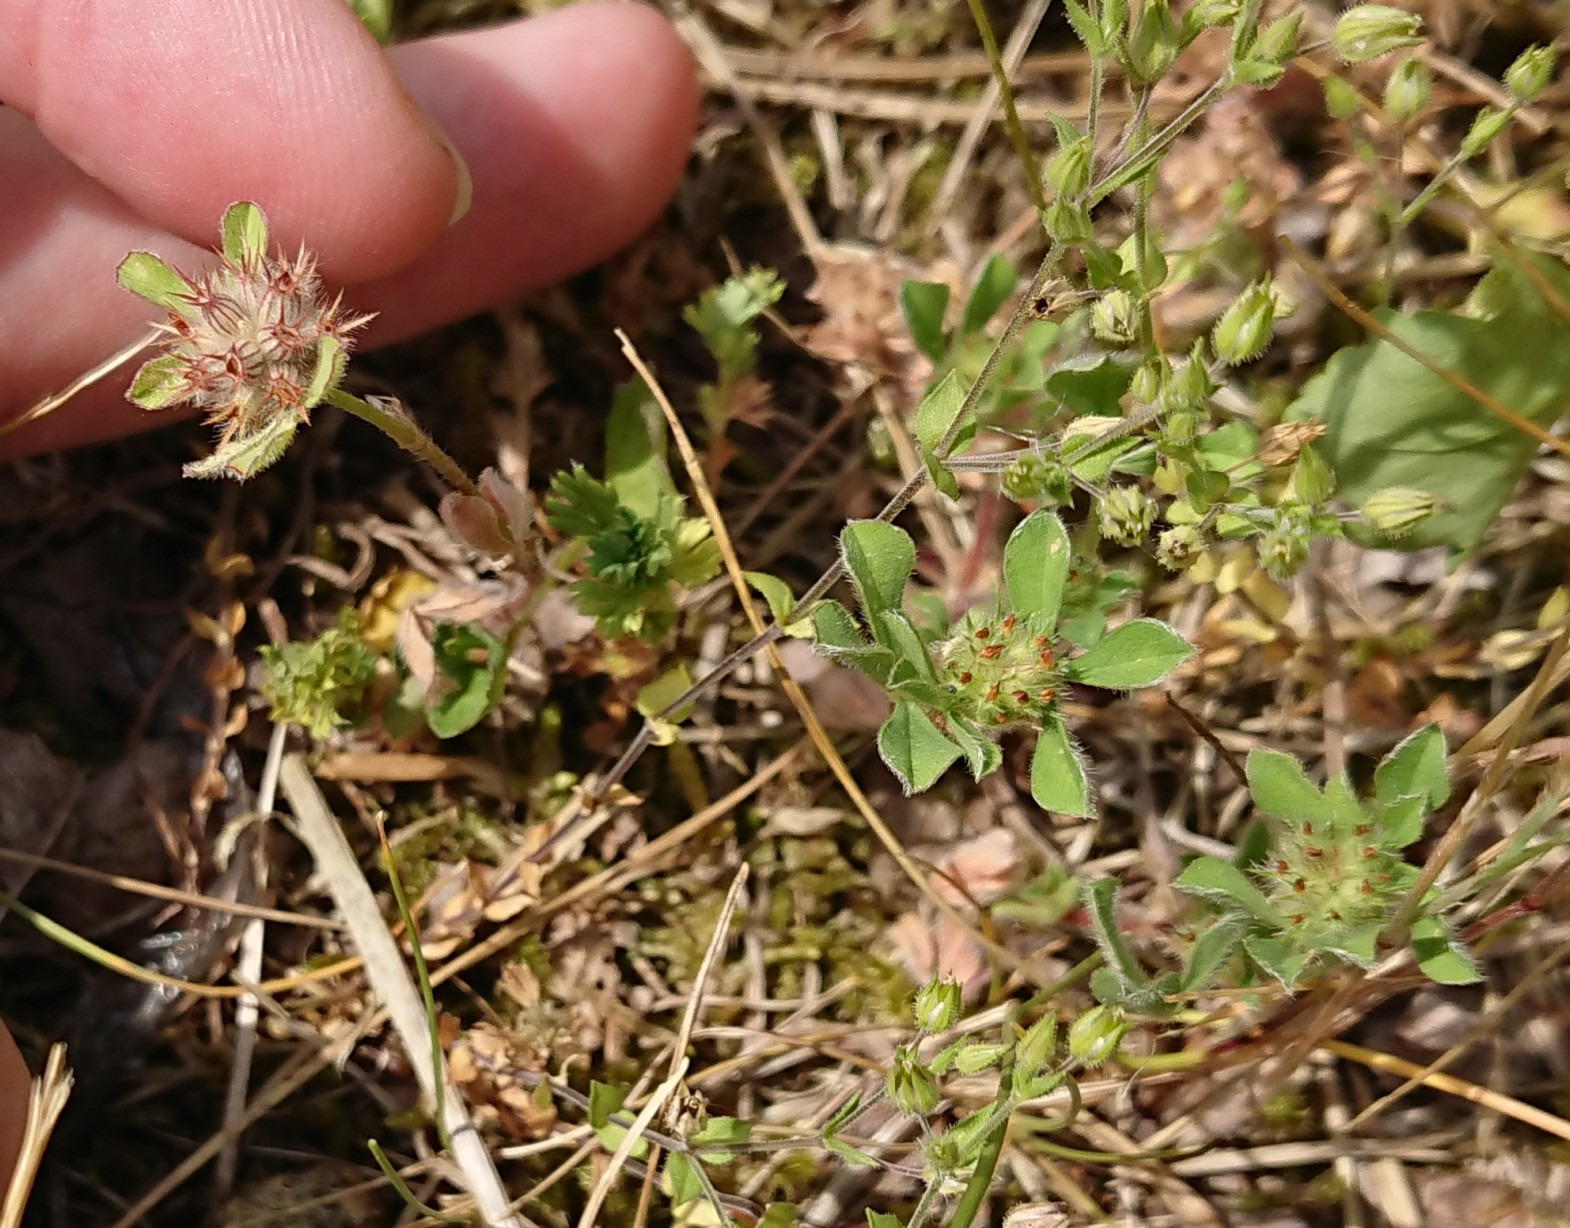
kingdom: Plantae
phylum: Tracheophyta
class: Magnoliopsida
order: Fabales
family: Fabaceae
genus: Trifolium
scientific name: Trifolium striatum
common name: Stribet kløver
